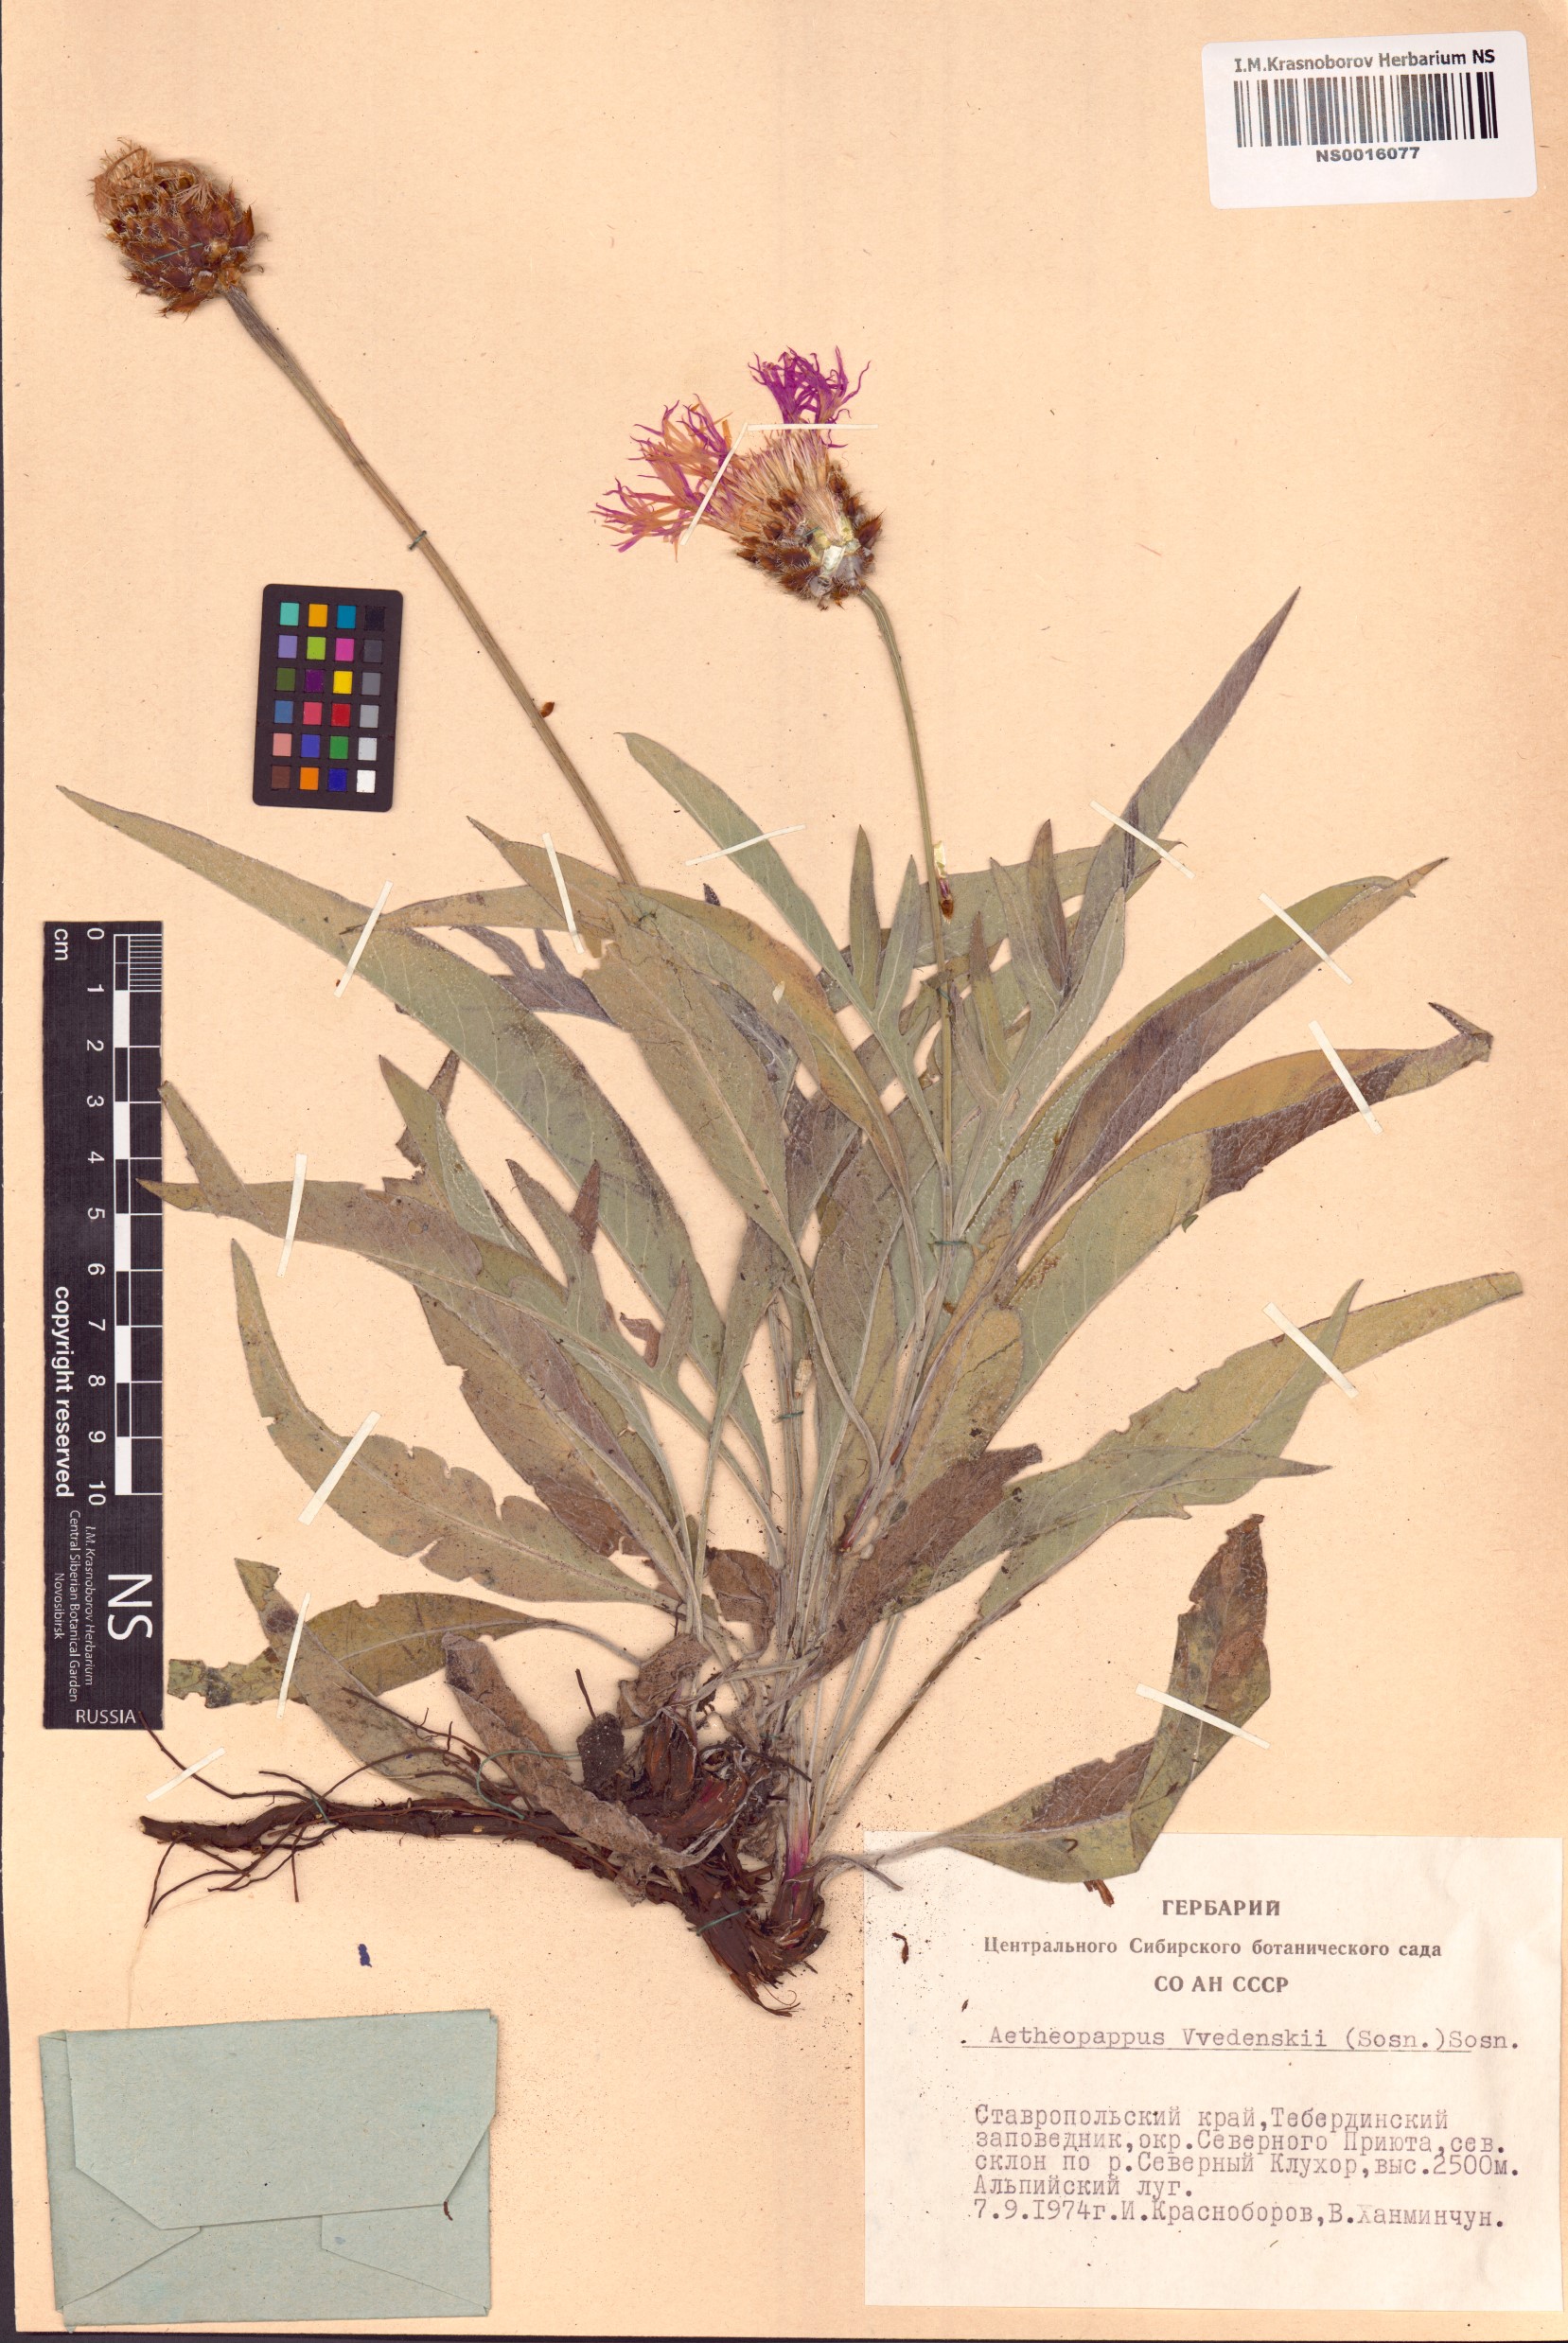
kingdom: Plantae
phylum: Tracheophyta
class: Magnoliopsida
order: Asterales
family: Asteraceae
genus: Psephellus
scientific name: Psephellus vvedenskii
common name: Solnechnik
